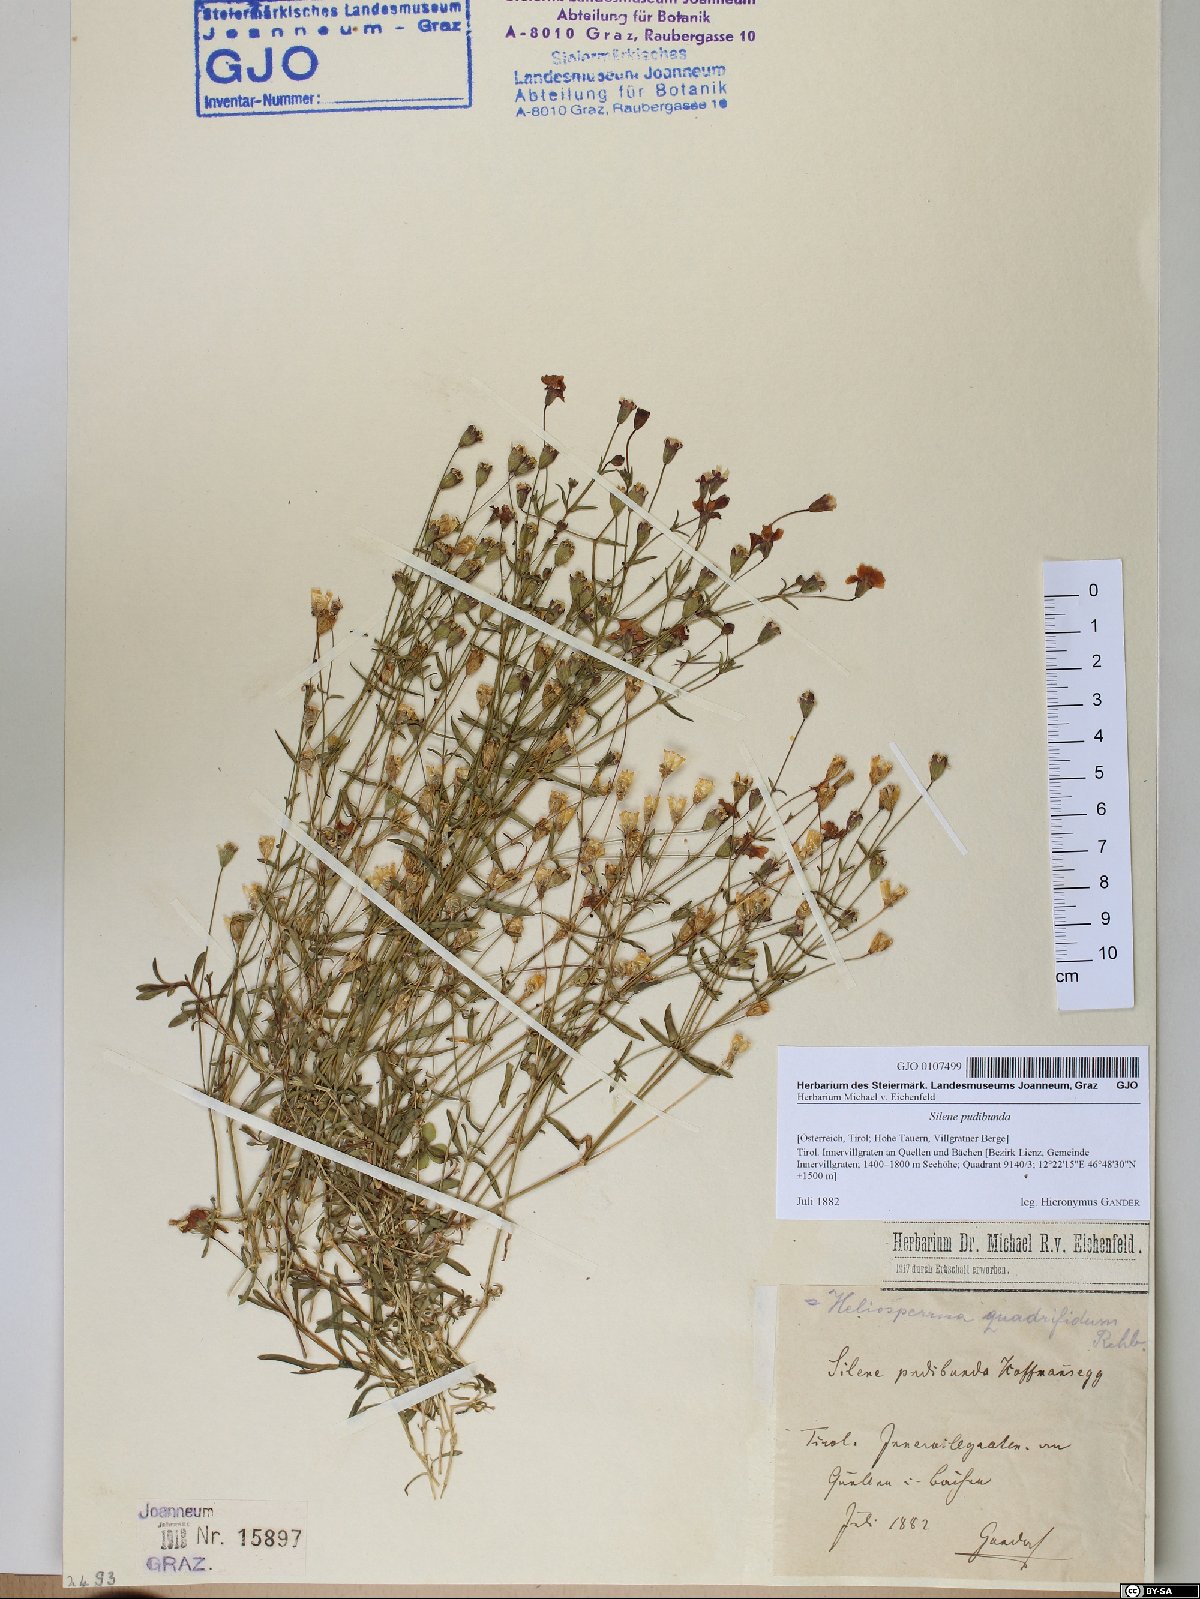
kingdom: Plantae
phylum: Tracheophyta
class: Magnoliopsida
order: Caryophyllales
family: Caryophyllaceae
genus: Heliosperma
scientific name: Heliosperma pudibundum
